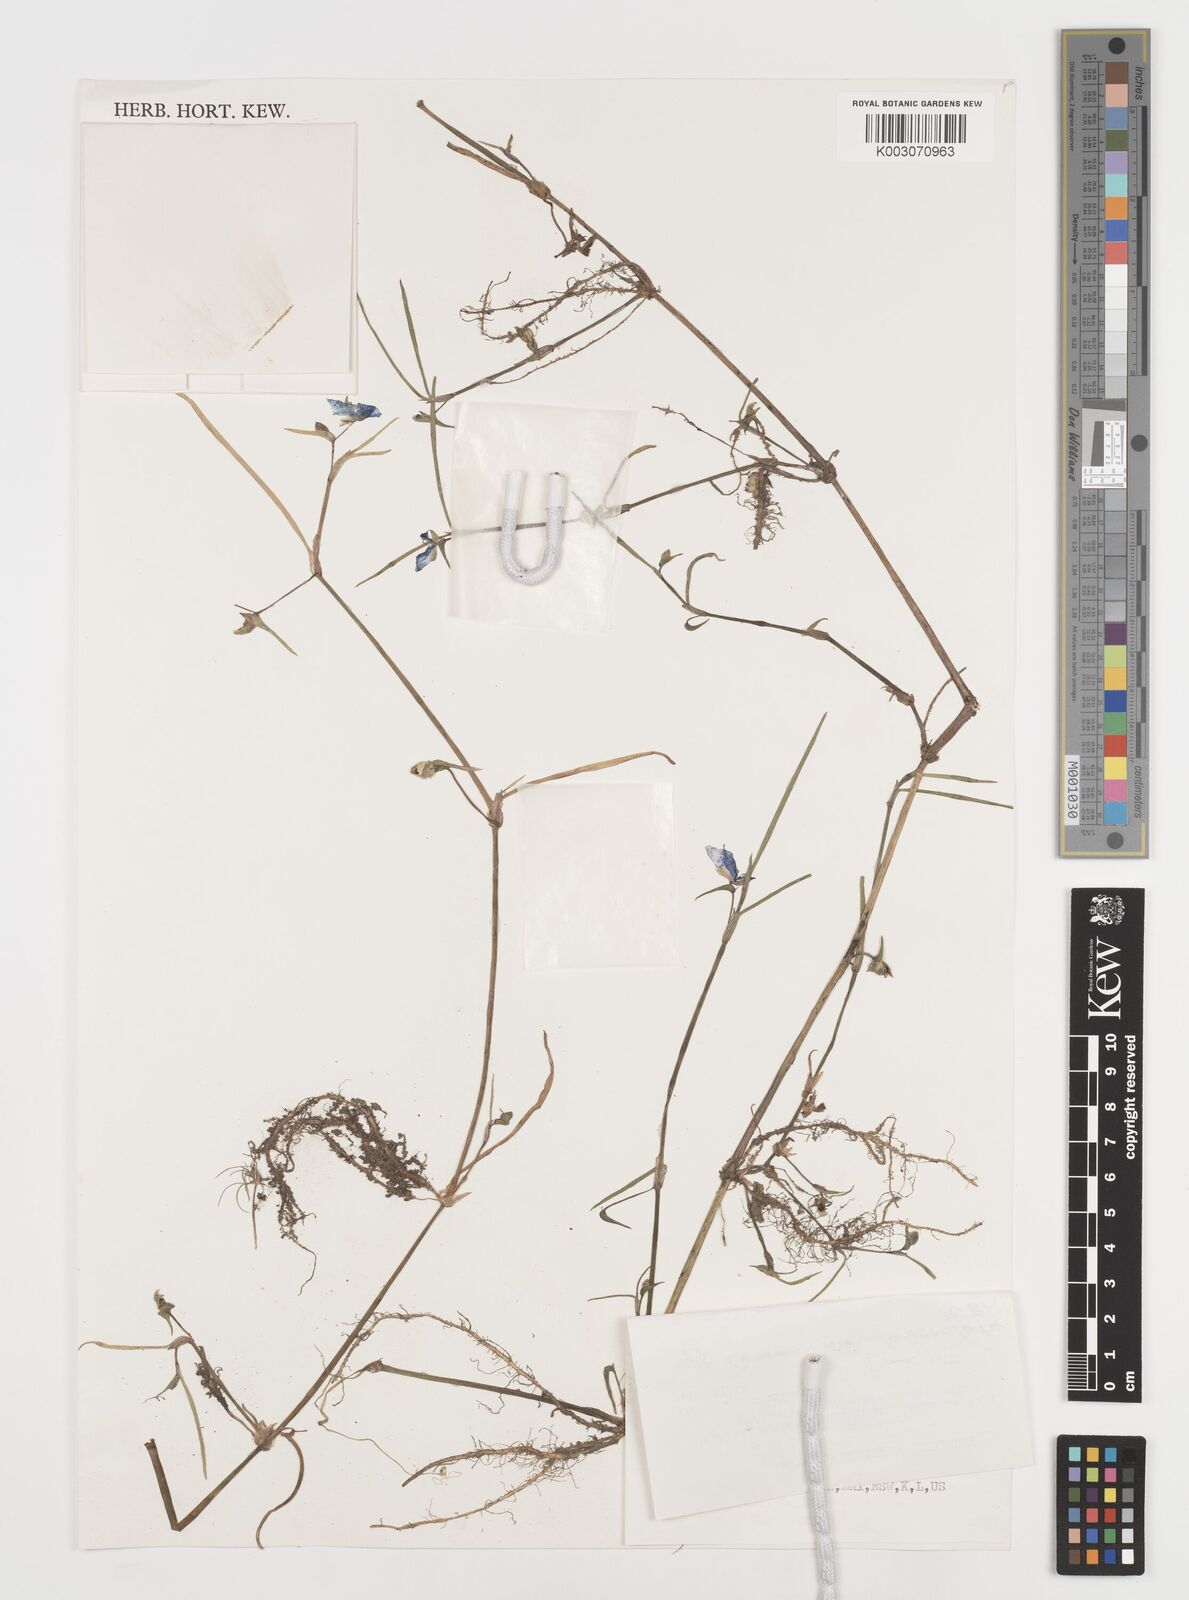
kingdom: Plantae
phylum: Tracheophyta
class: Liliopsida
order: Commelinales
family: Commelinaceae
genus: Commelina
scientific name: Commelina lanceolata
